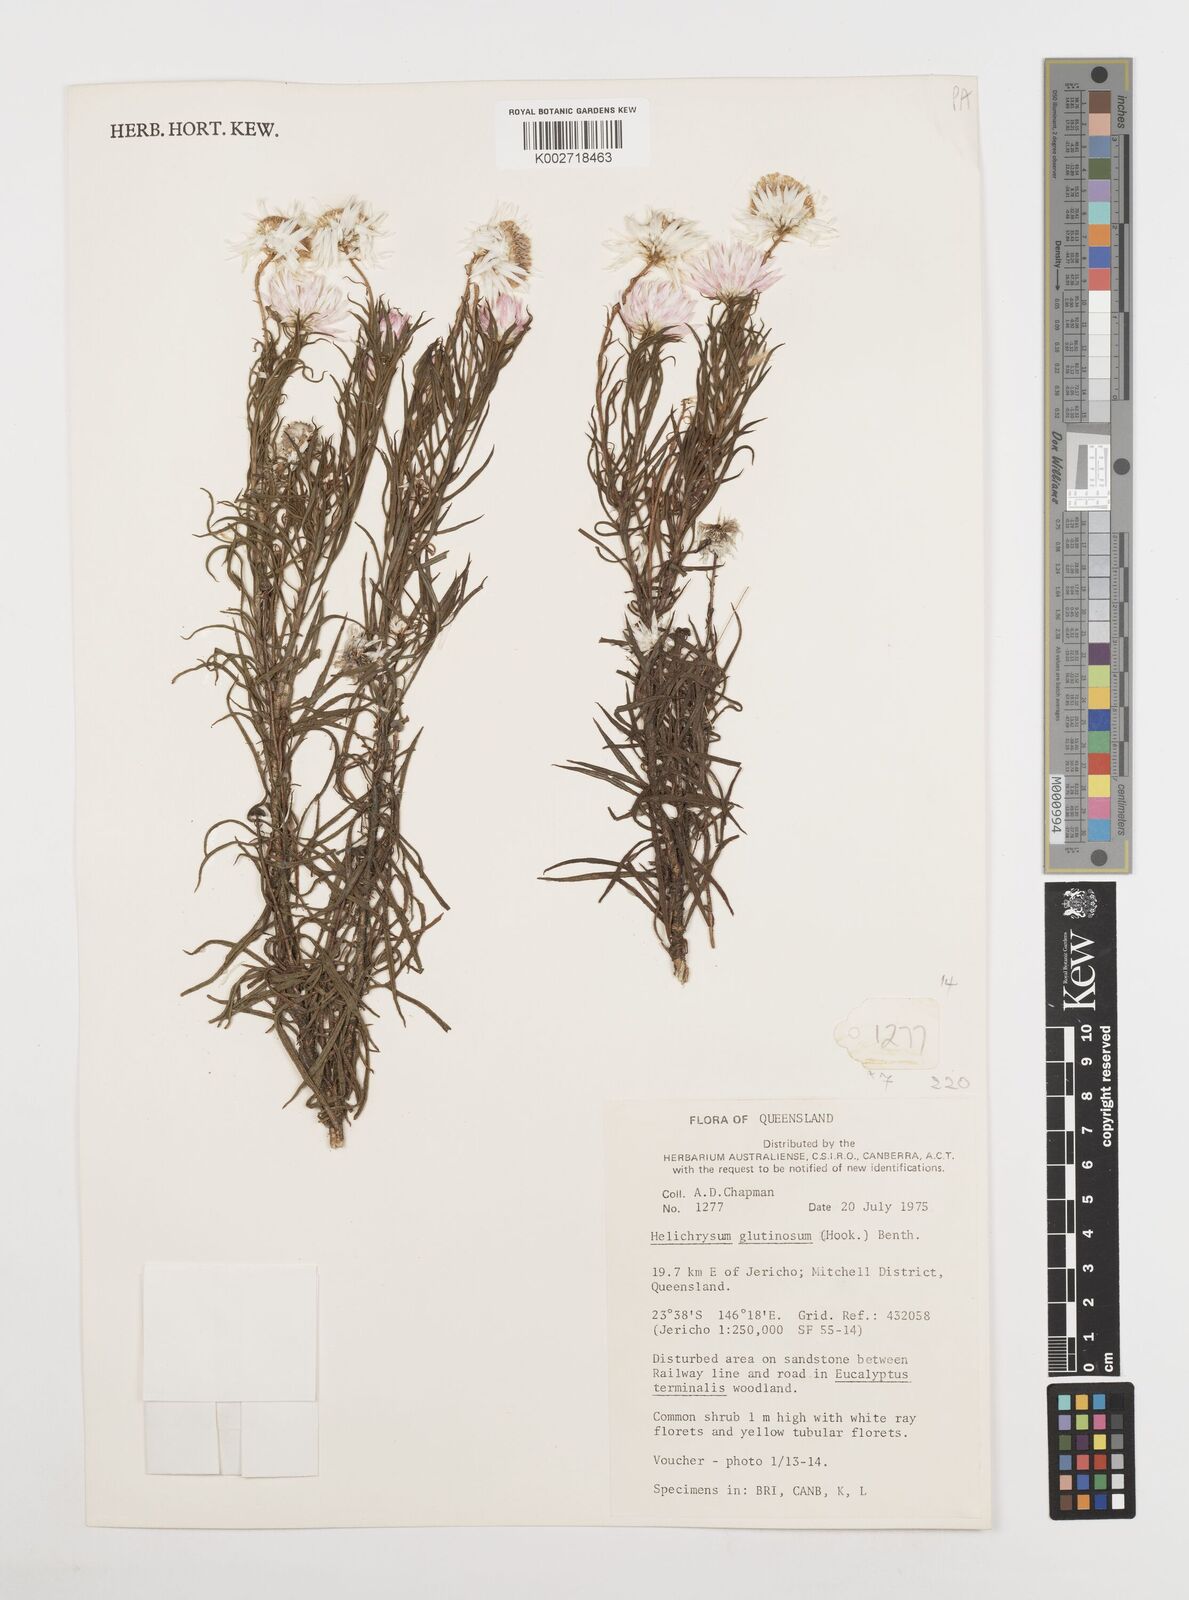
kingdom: Plantae
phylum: Tracheophyta
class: Magnoliopsida
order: Asterales
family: Asteraceae
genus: Coronidium
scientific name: Coronidium glutinosum
